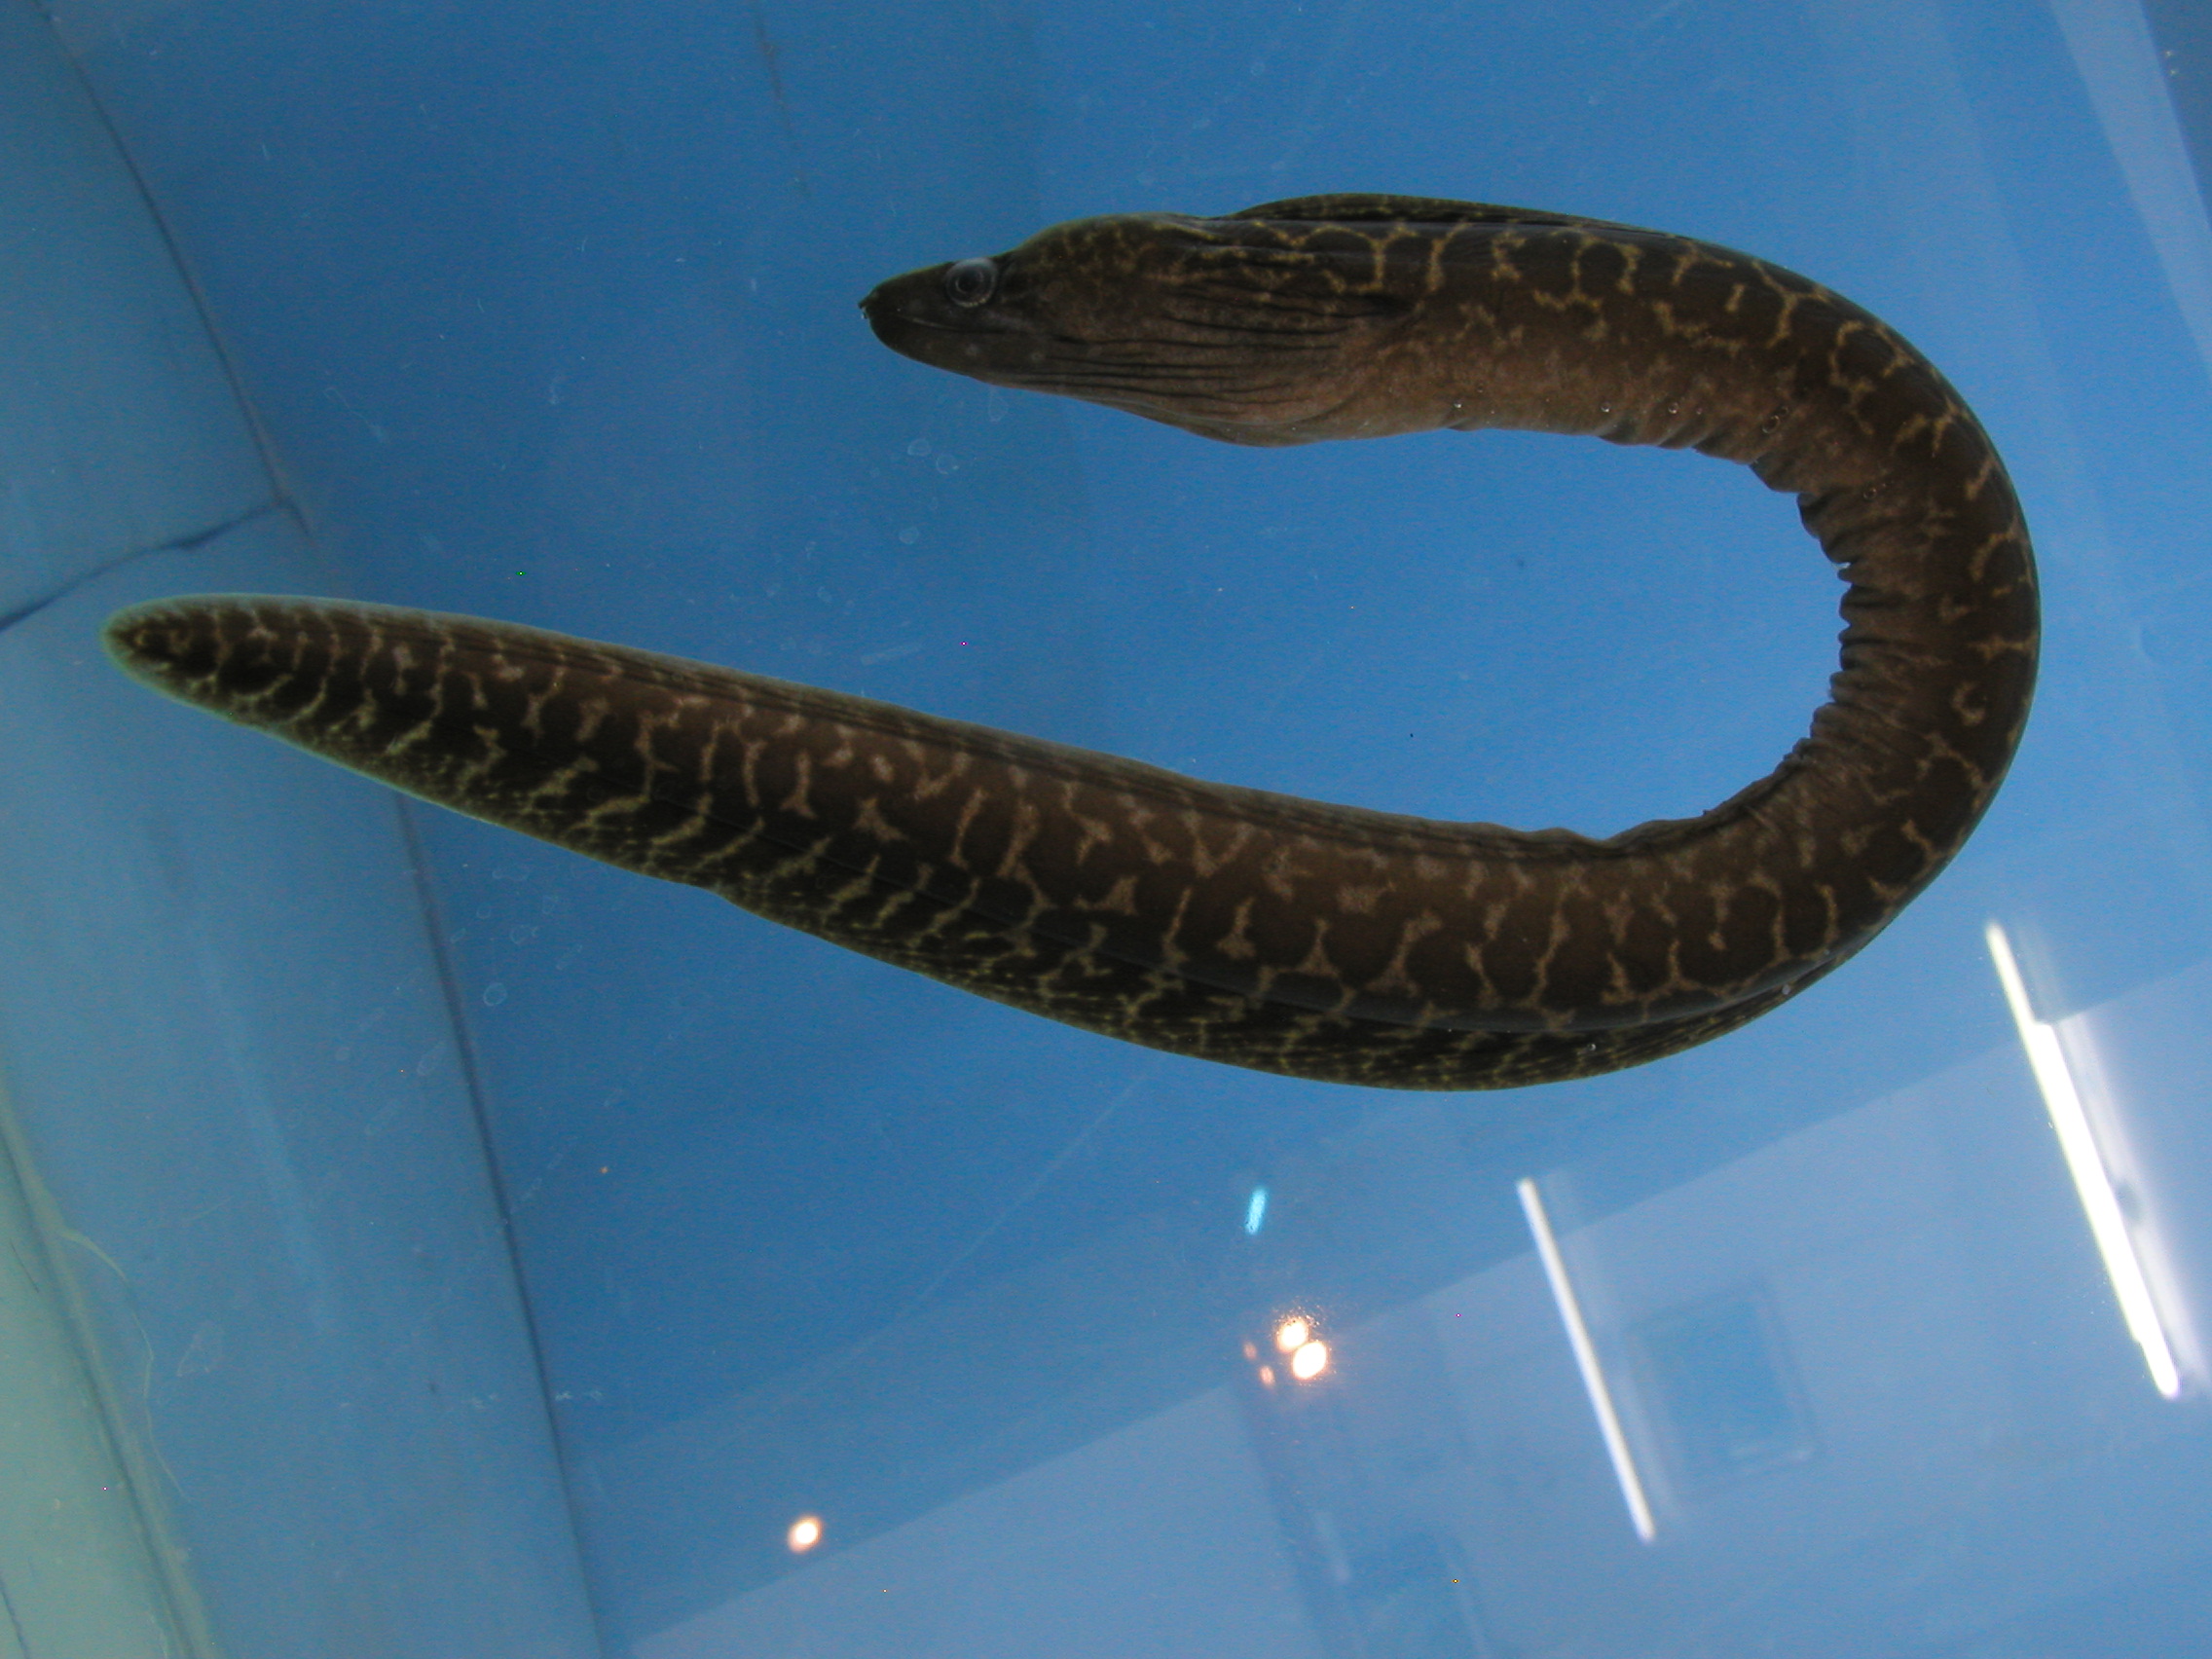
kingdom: Animalia
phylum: Chordata
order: Anguilliformes
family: Muraenidae
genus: Gymnothorax
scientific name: Gymnothorax undulatus
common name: Leopard moray
